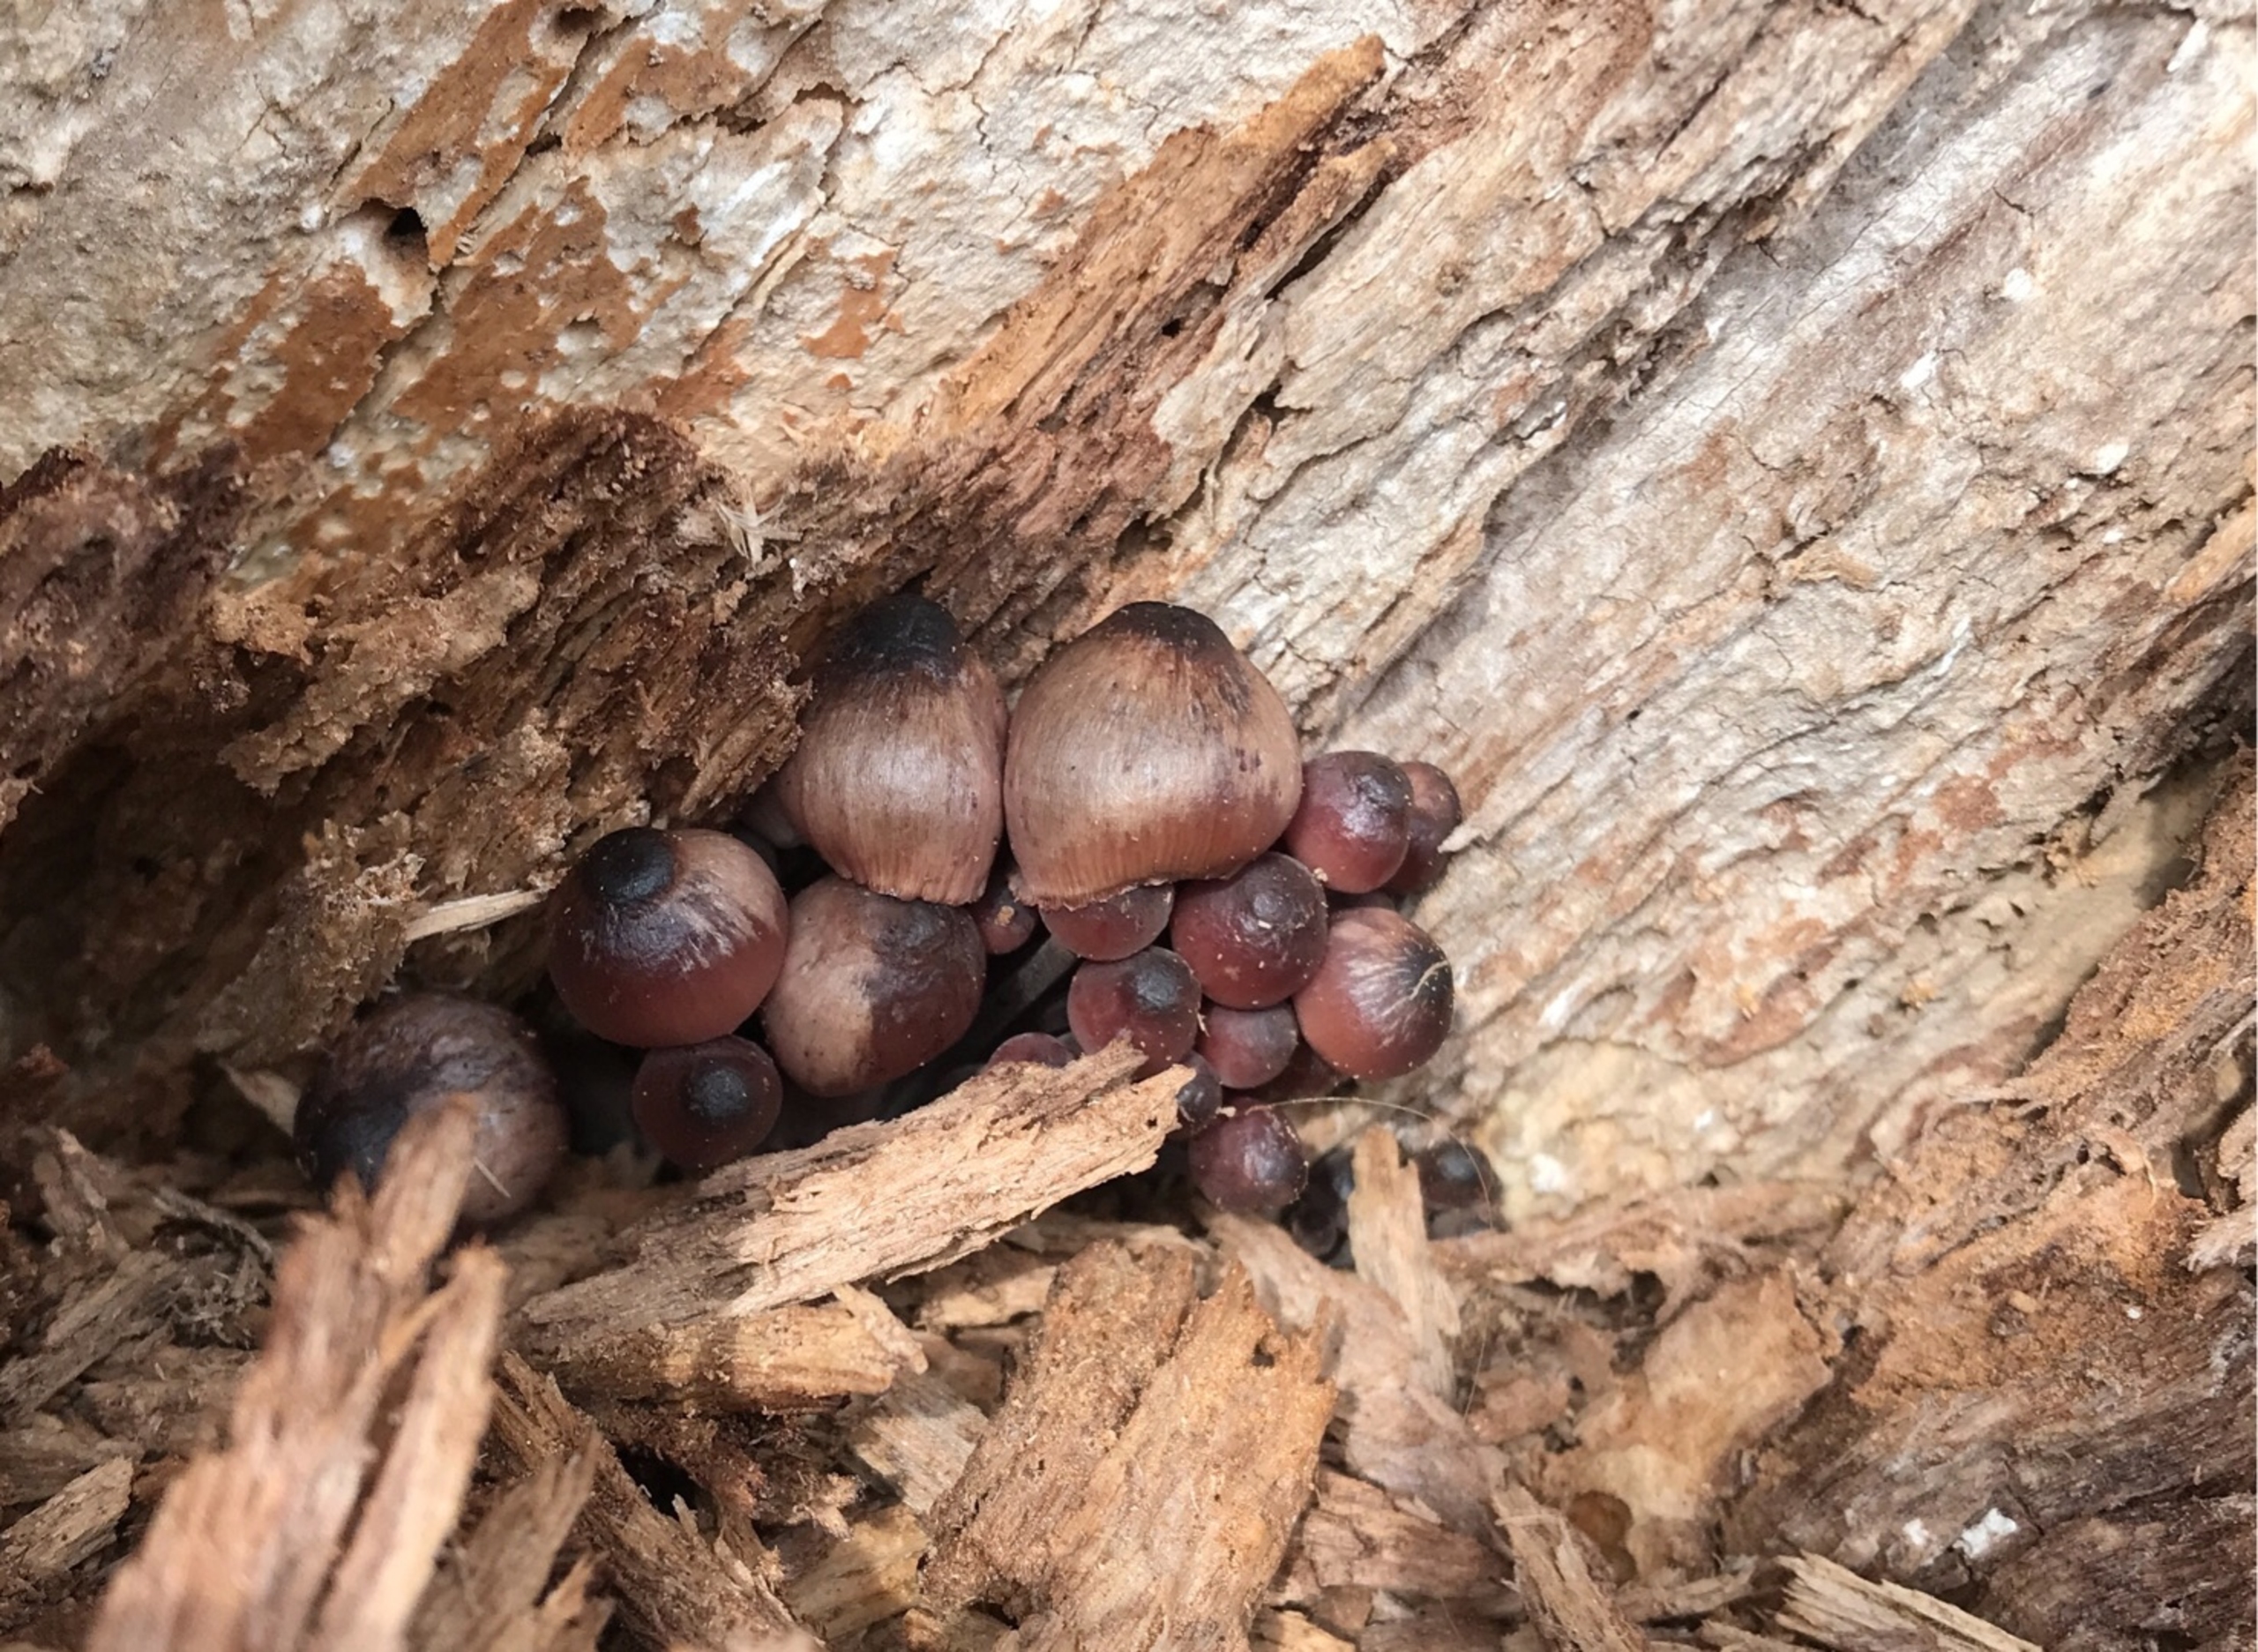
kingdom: Fungi
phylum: Basidiomycota
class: Agaricomycetes
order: Agaricales
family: Mycenaceae
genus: Mycena
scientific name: Mycena haematopus
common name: Blødende huesvamp
